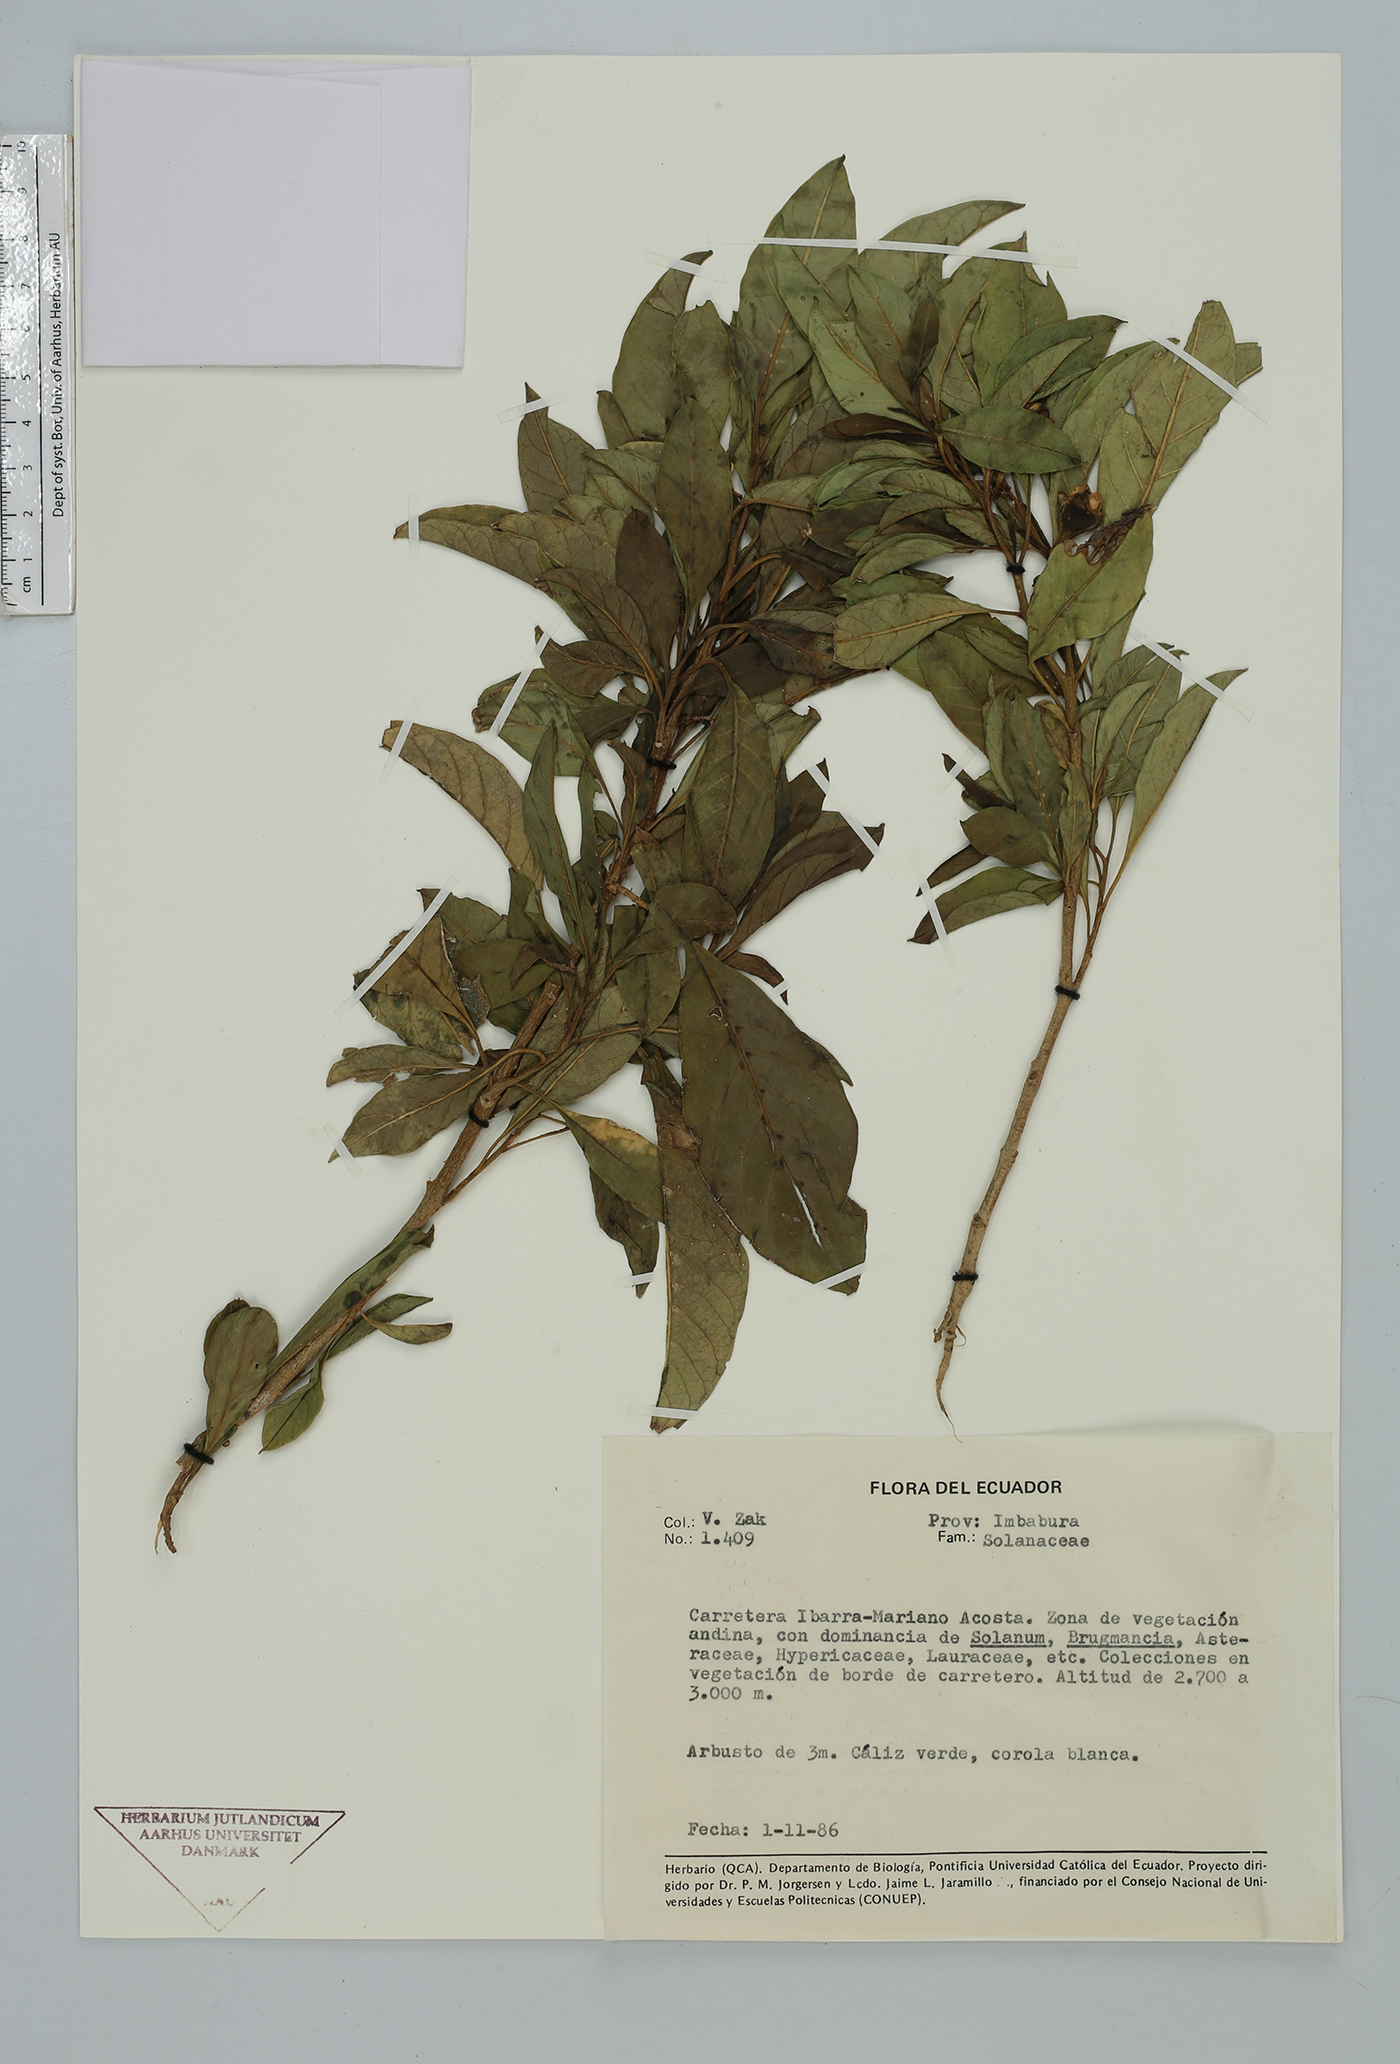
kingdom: Plantae
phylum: Tracheophyta
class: Magnoliopsida
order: Solanales
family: Solanaceae
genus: Solanum
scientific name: Solanum
